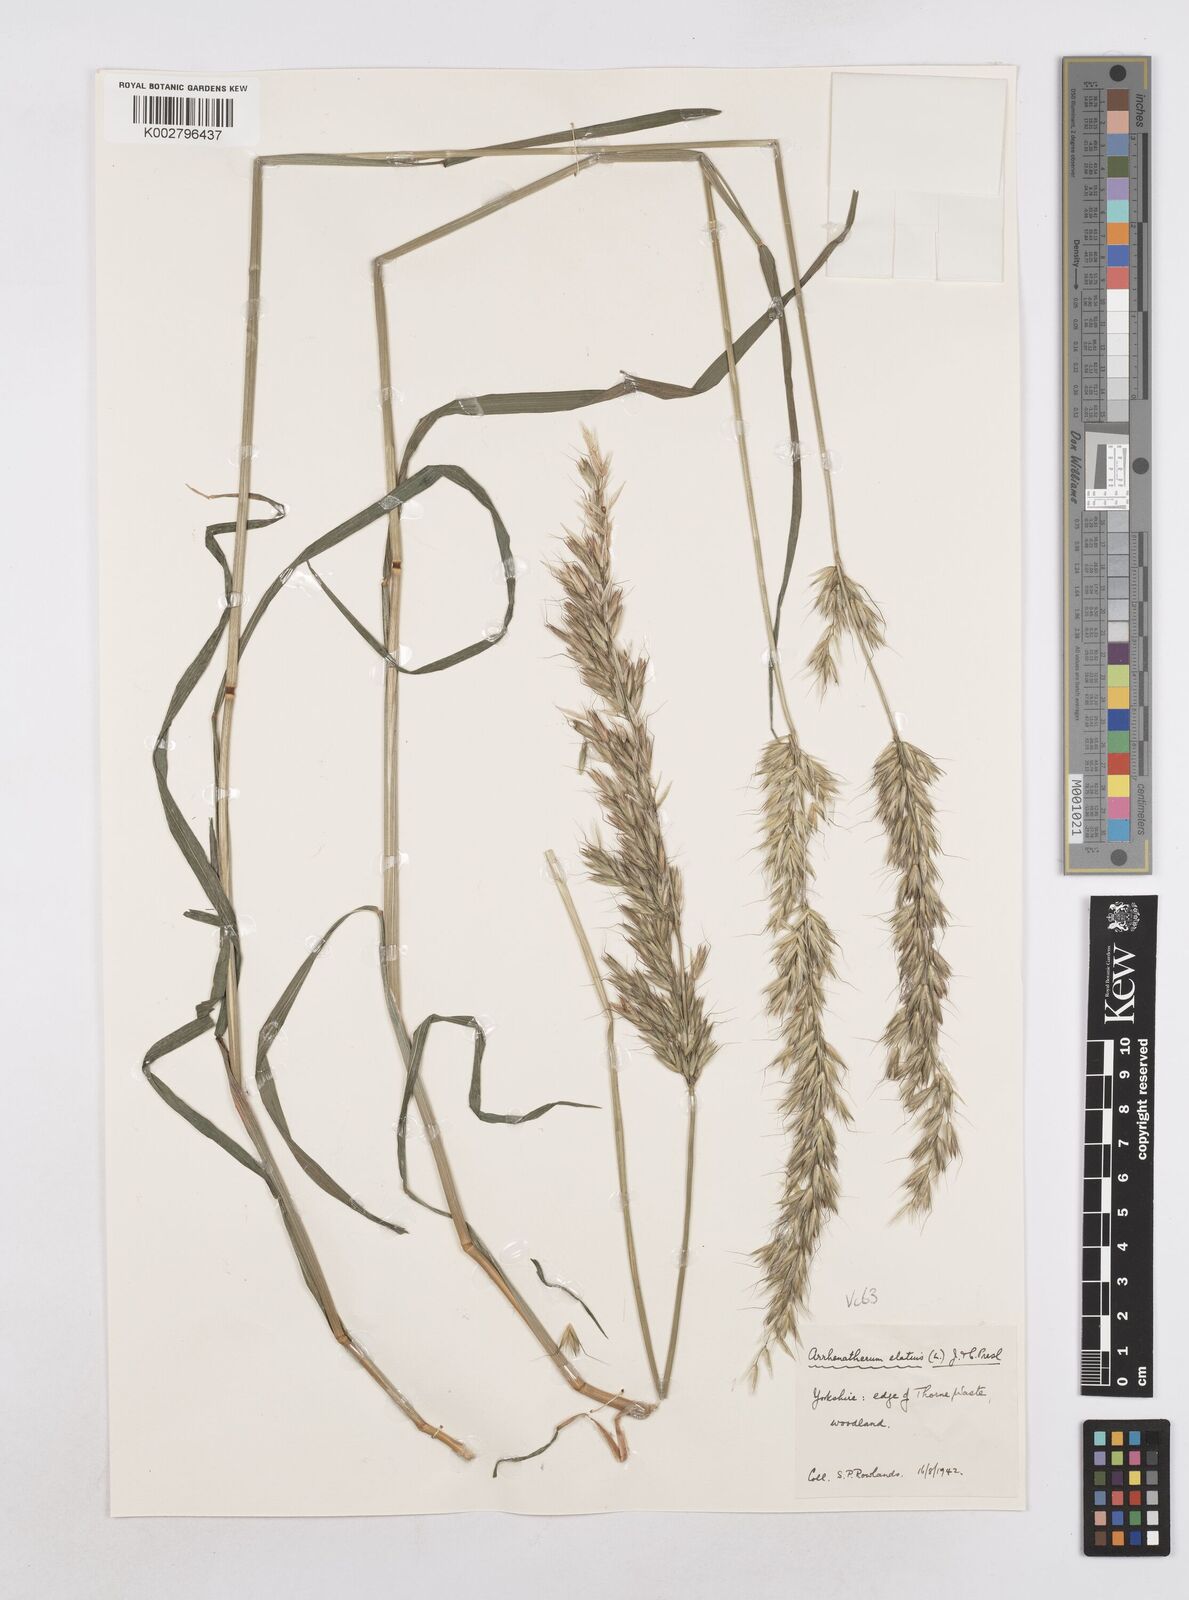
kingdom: Plantae
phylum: Tracheophyta
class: Liliopsida
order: Poales
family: Poaceae
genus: Arrhenatherum
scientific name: Arrhenatherum elatius
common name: Tall oatgrass
